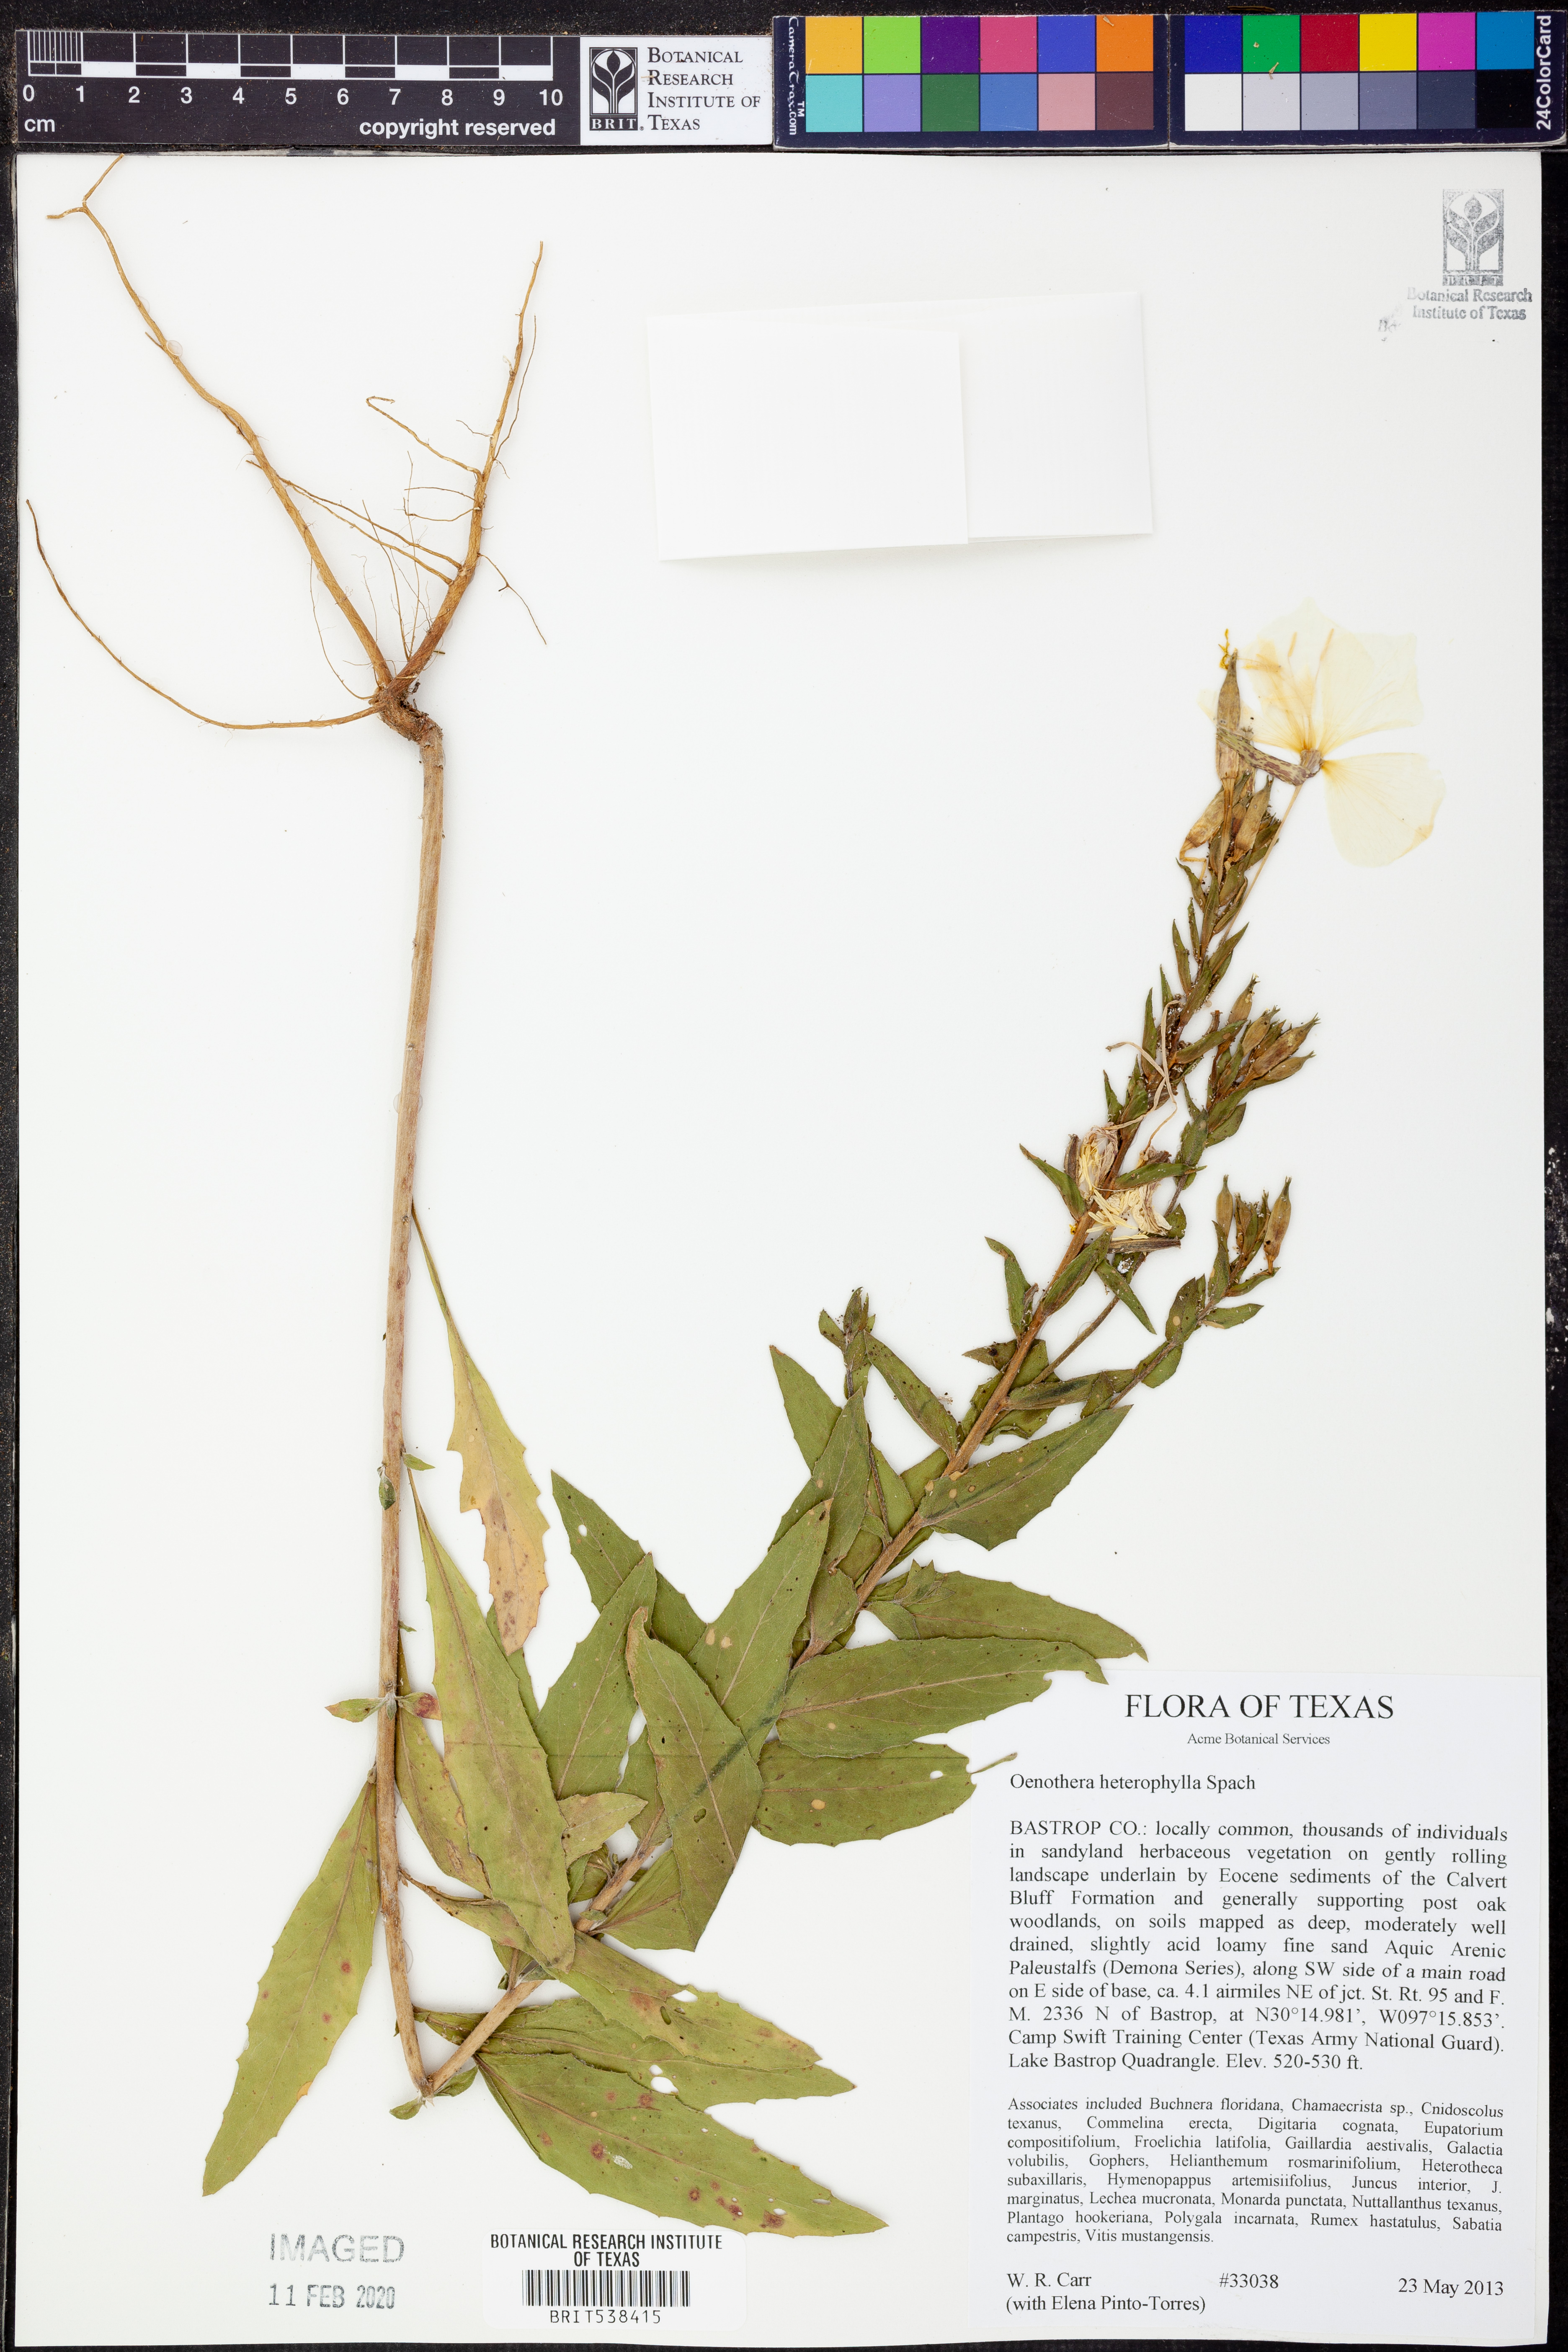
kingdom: Plantae
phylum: Tracheophyta
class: Magnoliopsida
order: Myrtales
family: Onagraceae
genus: Camissonia
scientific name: Camissonia dentata
